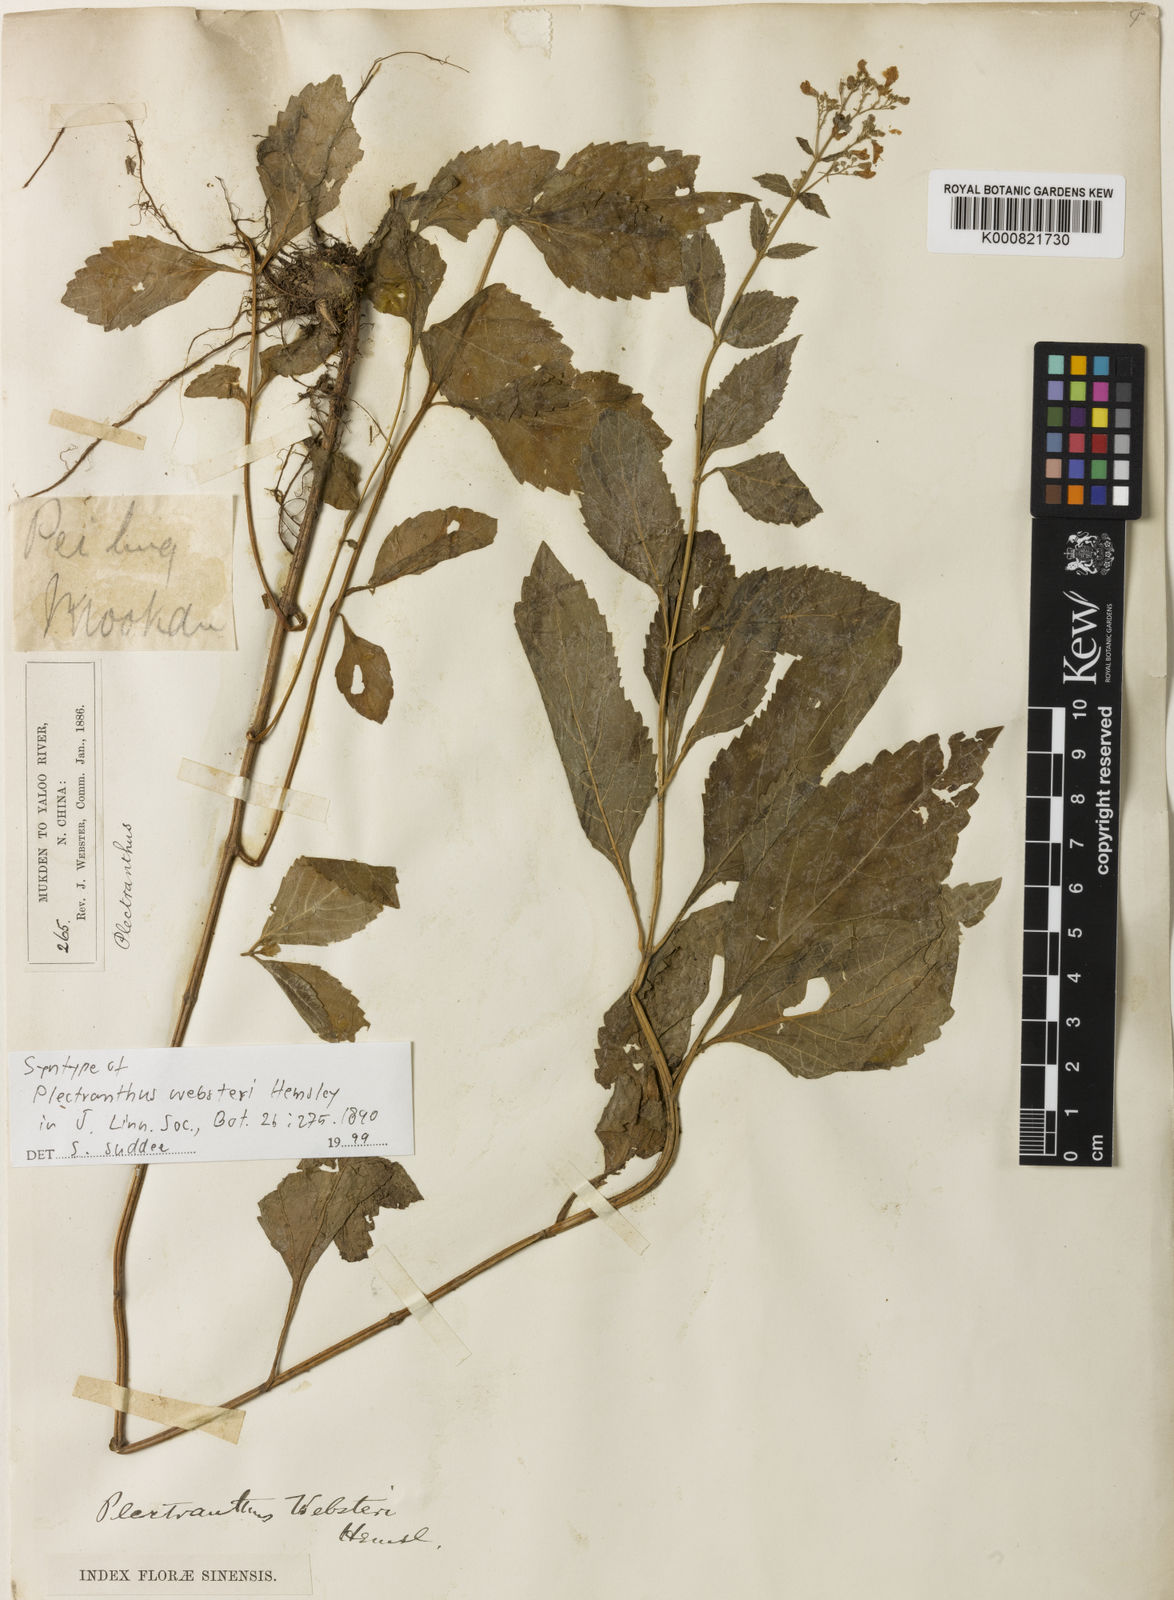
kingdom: Plantae
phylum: Tracheophyta
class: Magnoliopsida
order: Lamiales
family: Lamiaceae
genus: Isodon
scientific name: Isodon
